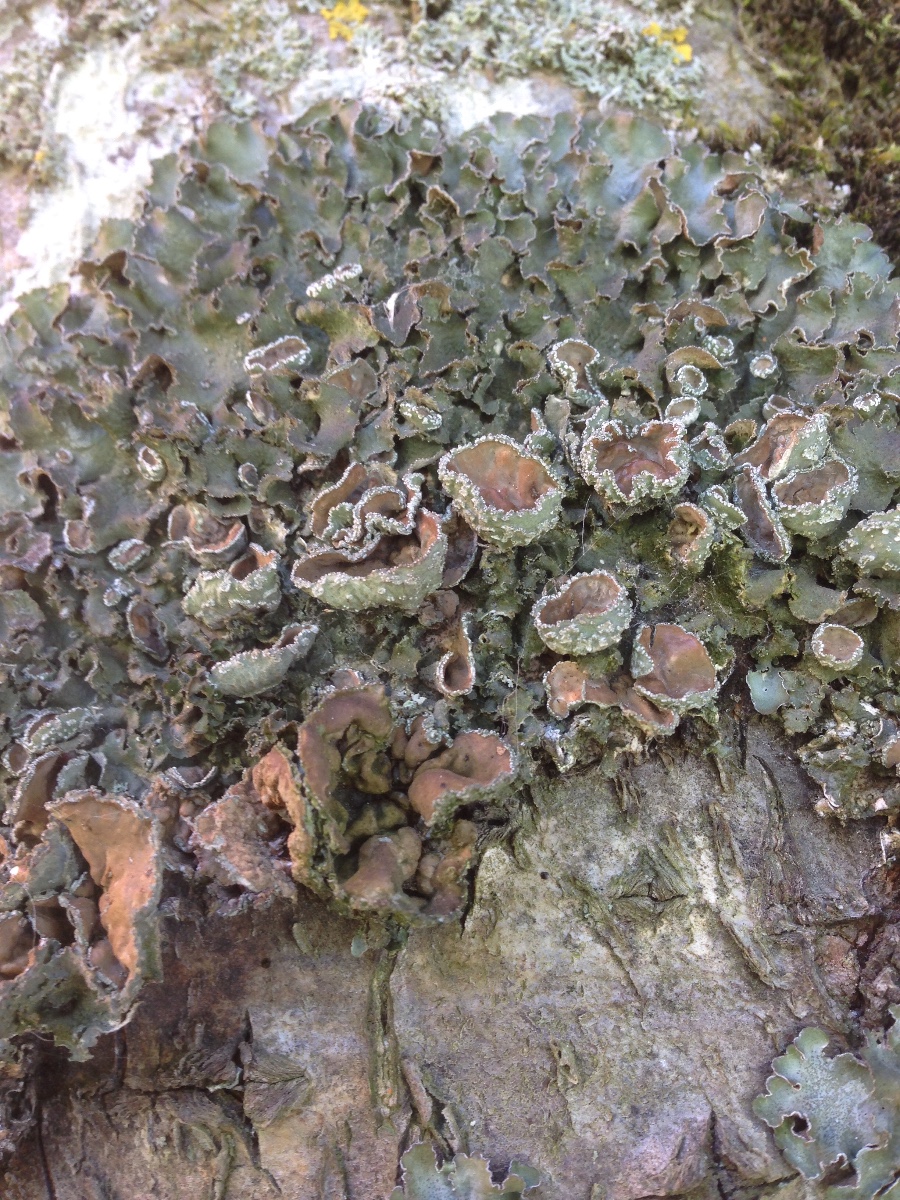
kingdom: Fungi
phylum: Ascomycota
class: Lecanoromycetes
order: Lecanorales
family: Parmeliaceae
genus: Pleurosticta
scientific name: Pleurosticta acetabulum
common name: stor skållav
